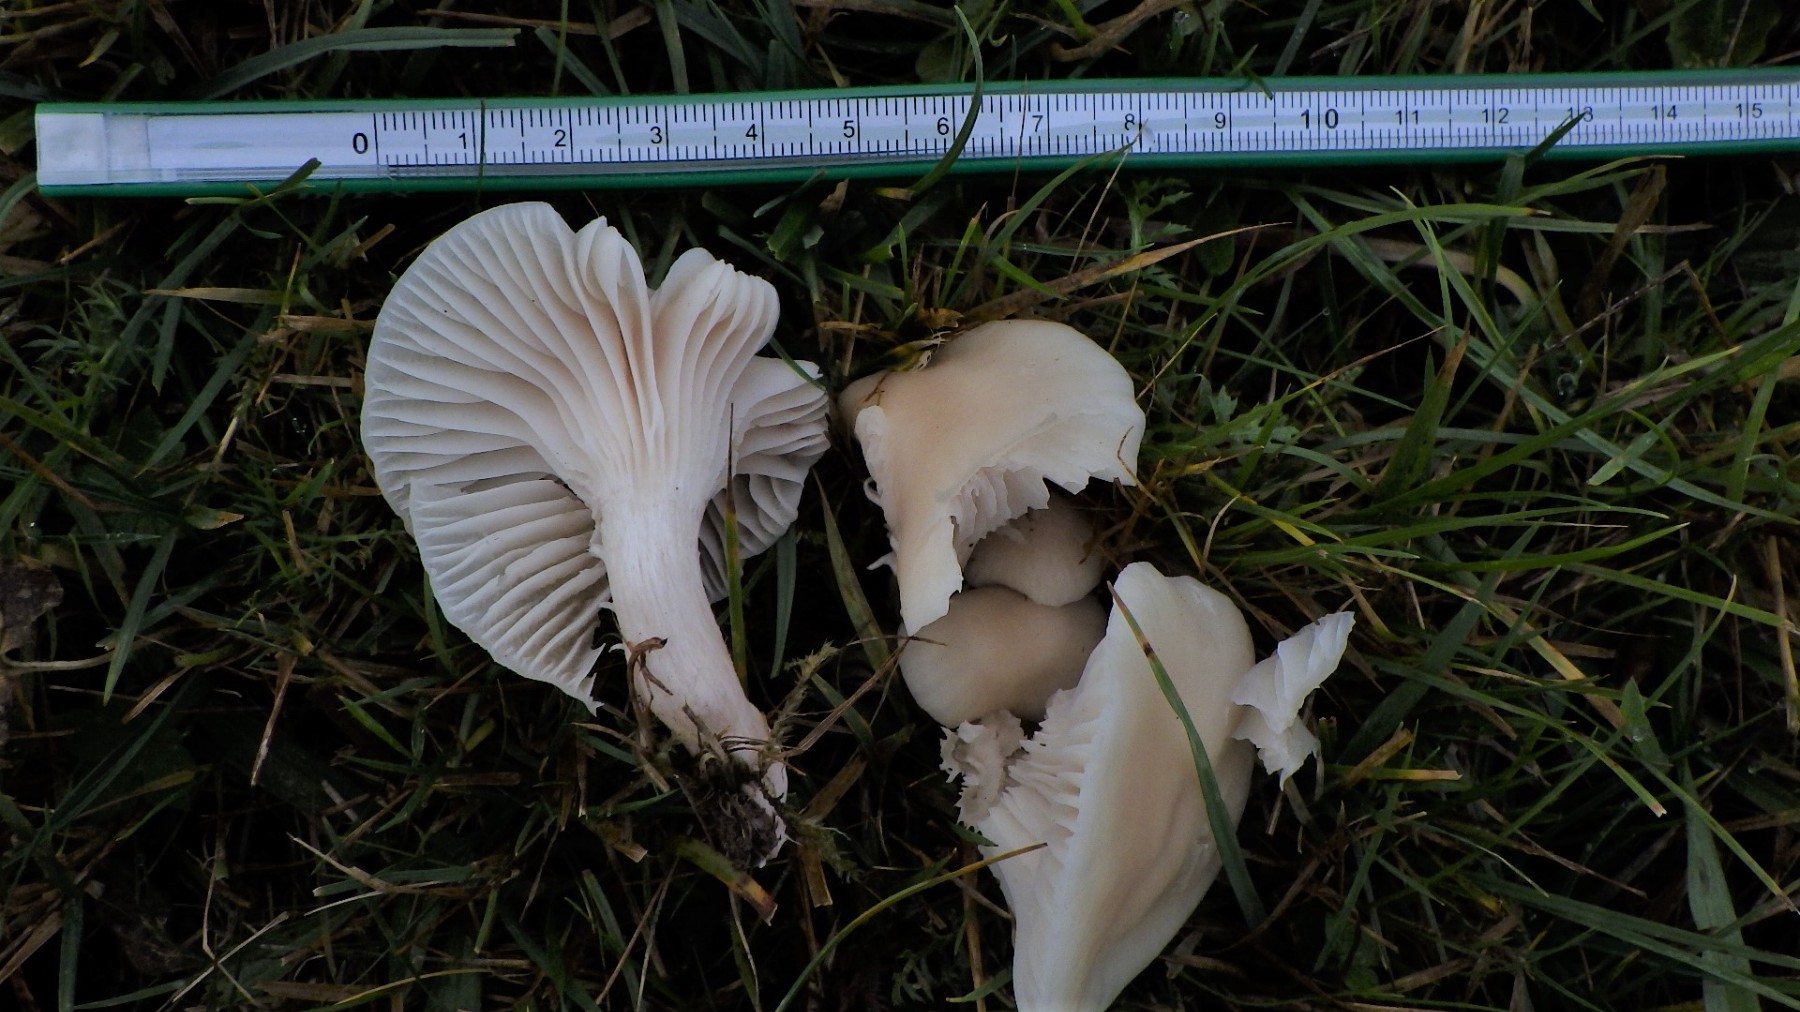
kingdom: Fungi
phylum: Basidiomycota
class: Agaricomycetes
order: Agaricales
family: Hygrophoraceae
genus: Cuphophyllus
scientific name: Cuphophyllus
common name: vokshat
